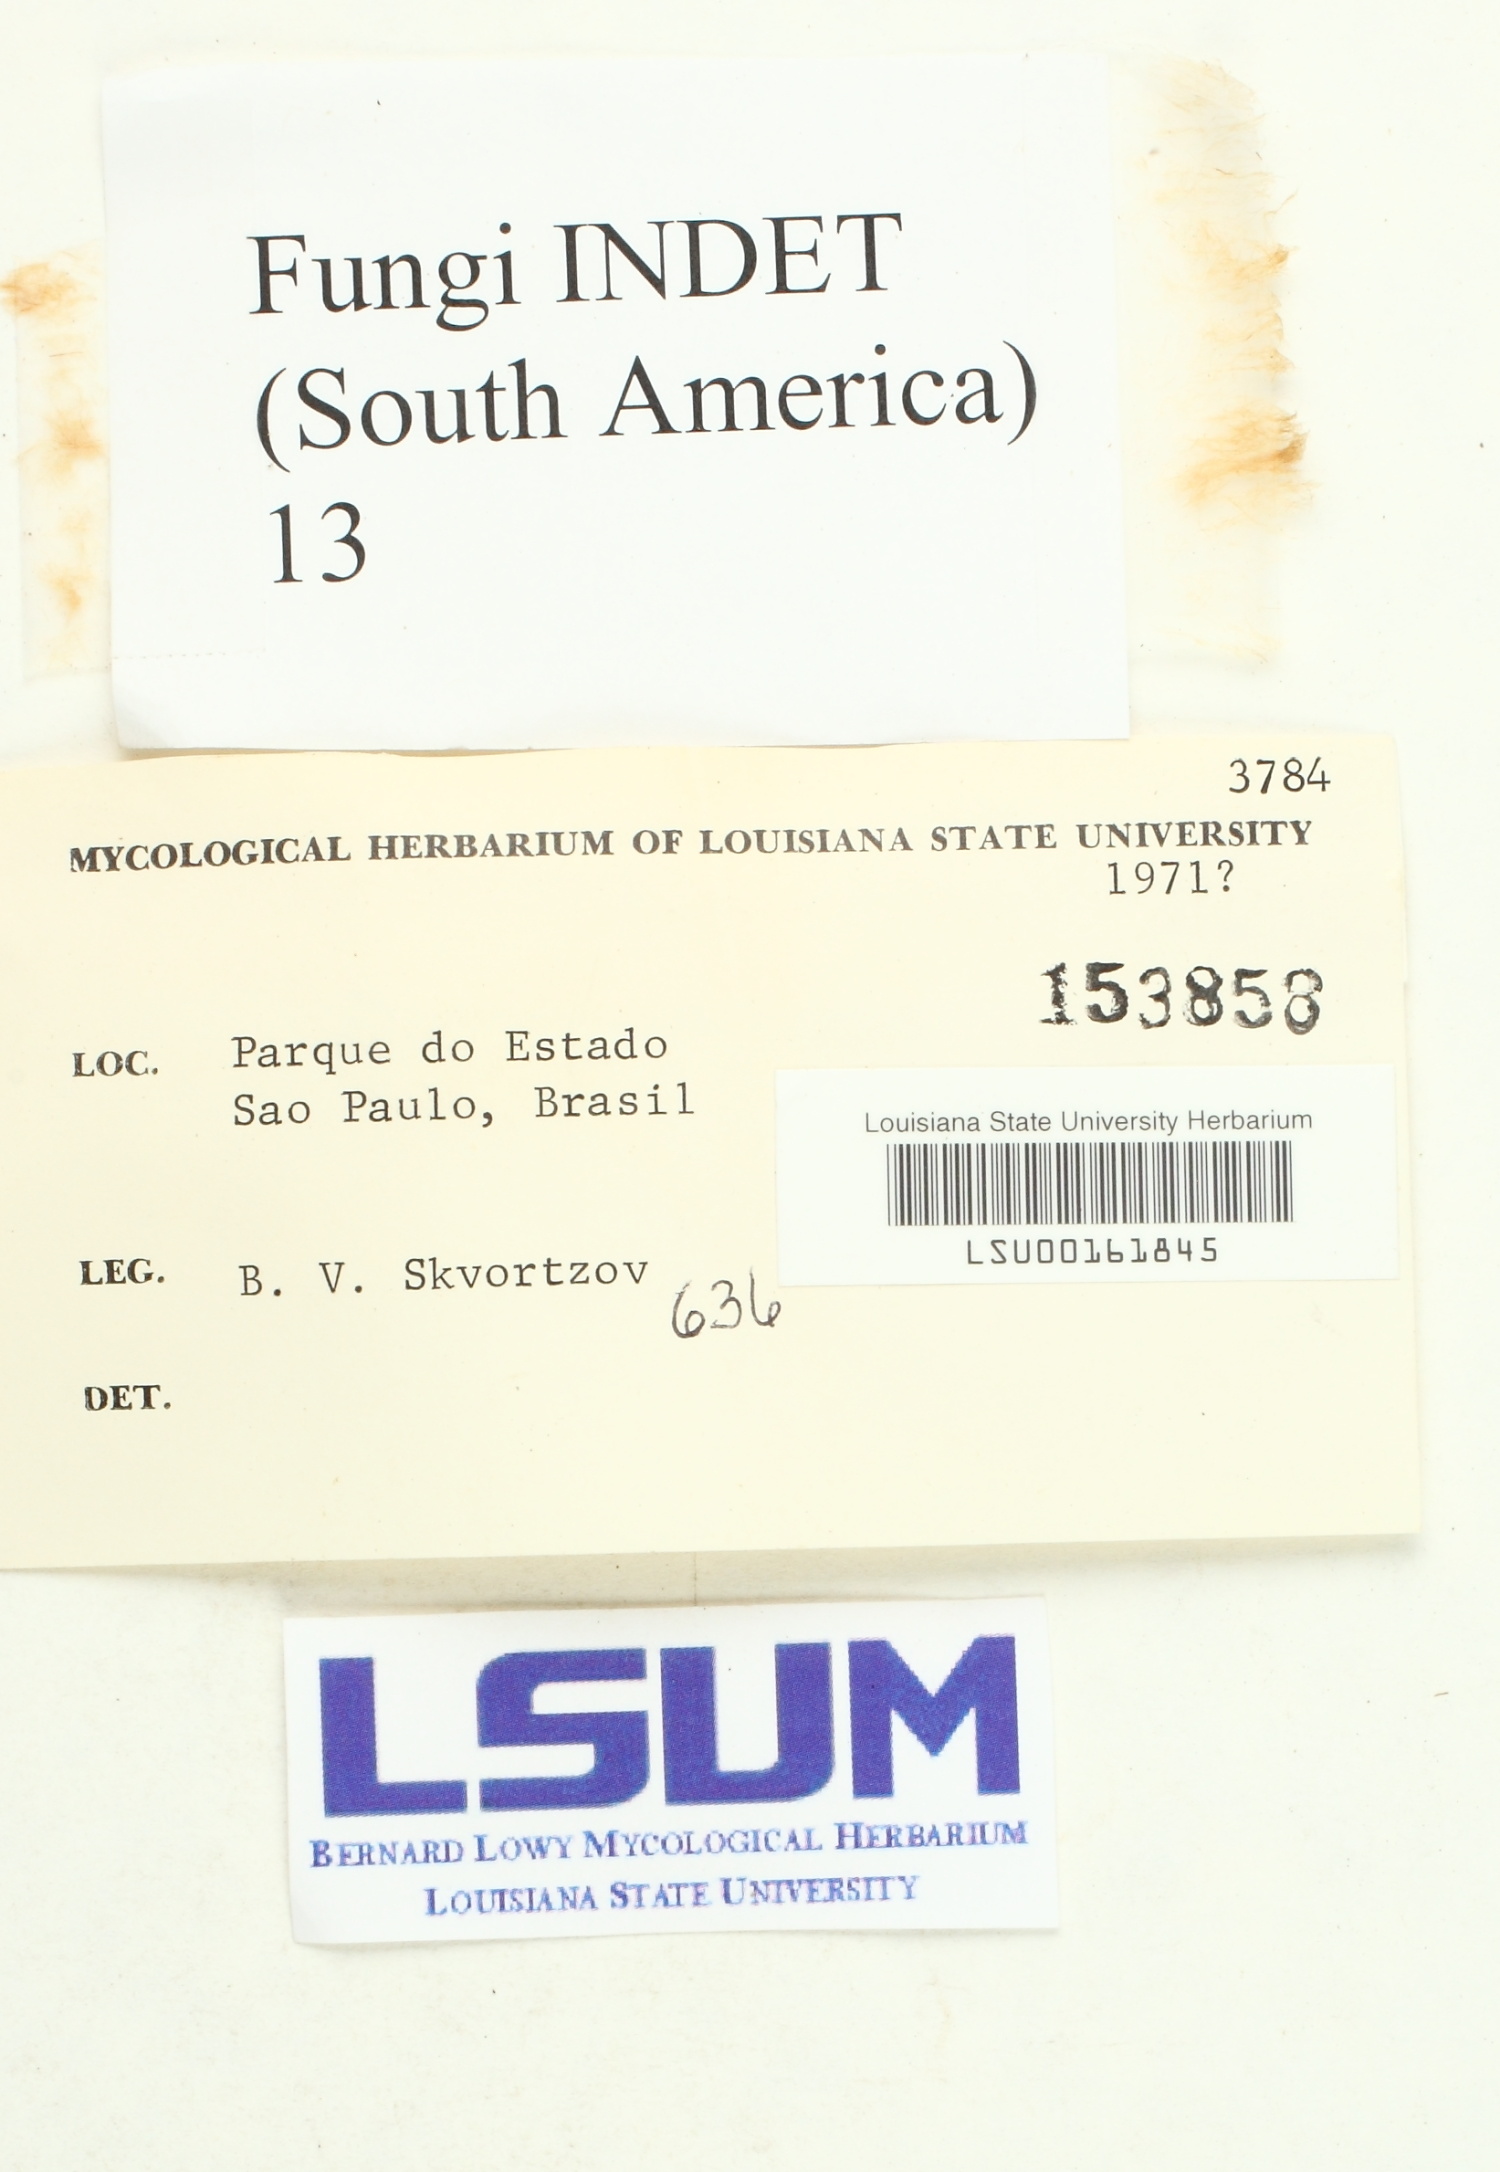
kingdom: Fungi
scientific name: Fungi
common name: Fungi
